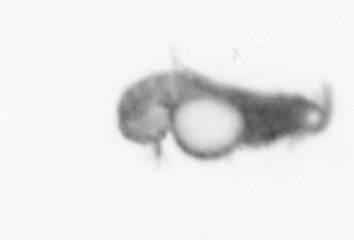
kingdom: Animalia
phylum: Annelida
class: Polychaeta
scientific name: Polychaeta
